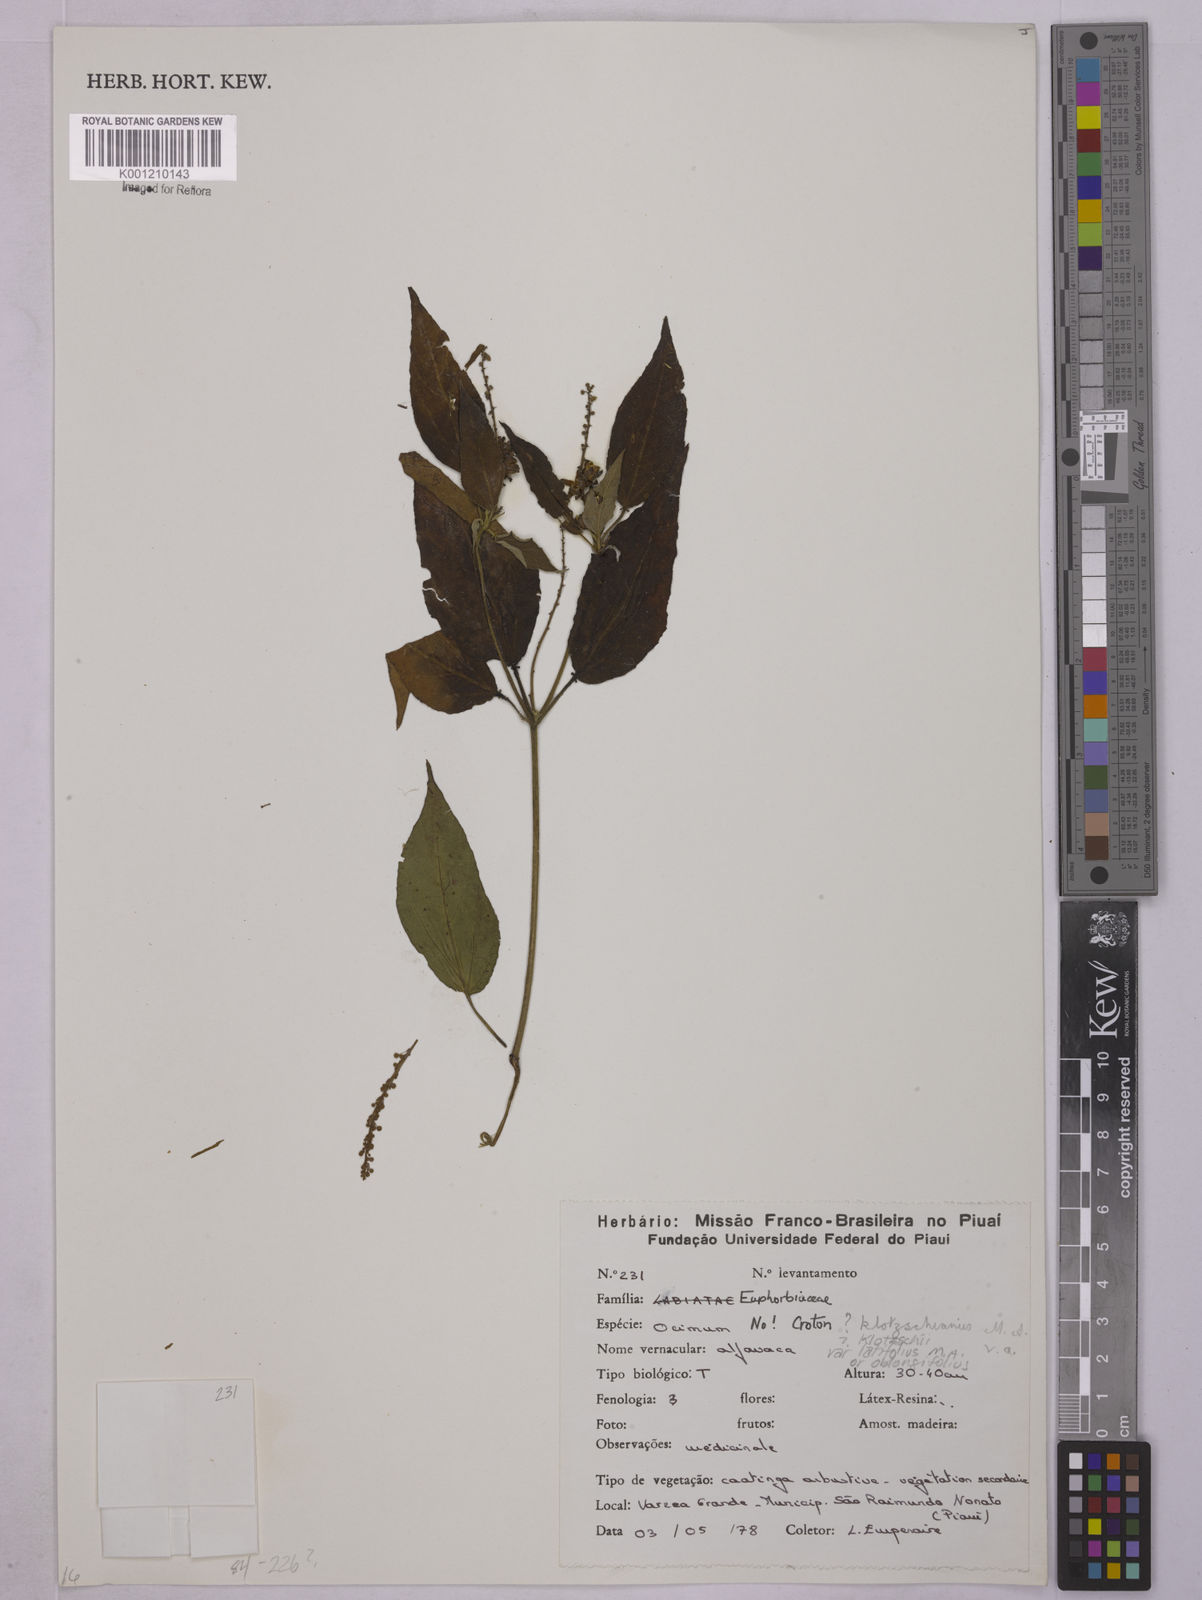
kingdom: Plantae
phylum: Tracheophyta
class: Magnoliopsida
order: Malpighiales
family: Euphorbiaceae
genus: Astraea
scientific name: Astraea macroura
